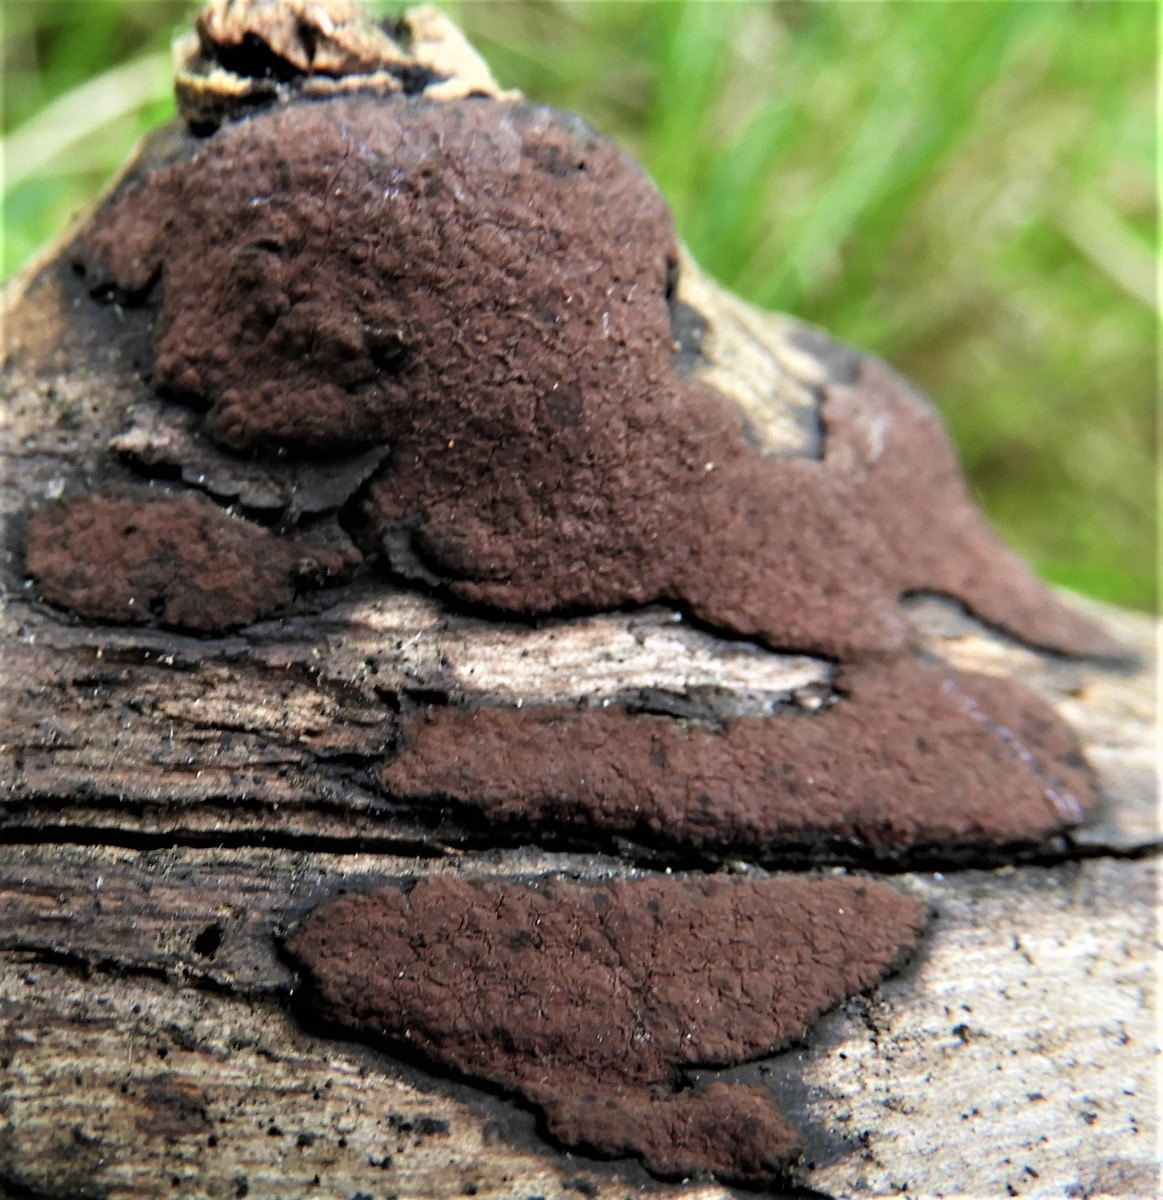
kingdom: Fungi
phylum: Ascomycota
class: Sordariomycetes
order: Xylariales
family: Hypoxylaceae
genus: Hypoxylon
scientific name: Hypoxylon petriniae
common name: nedsænket kulbær
